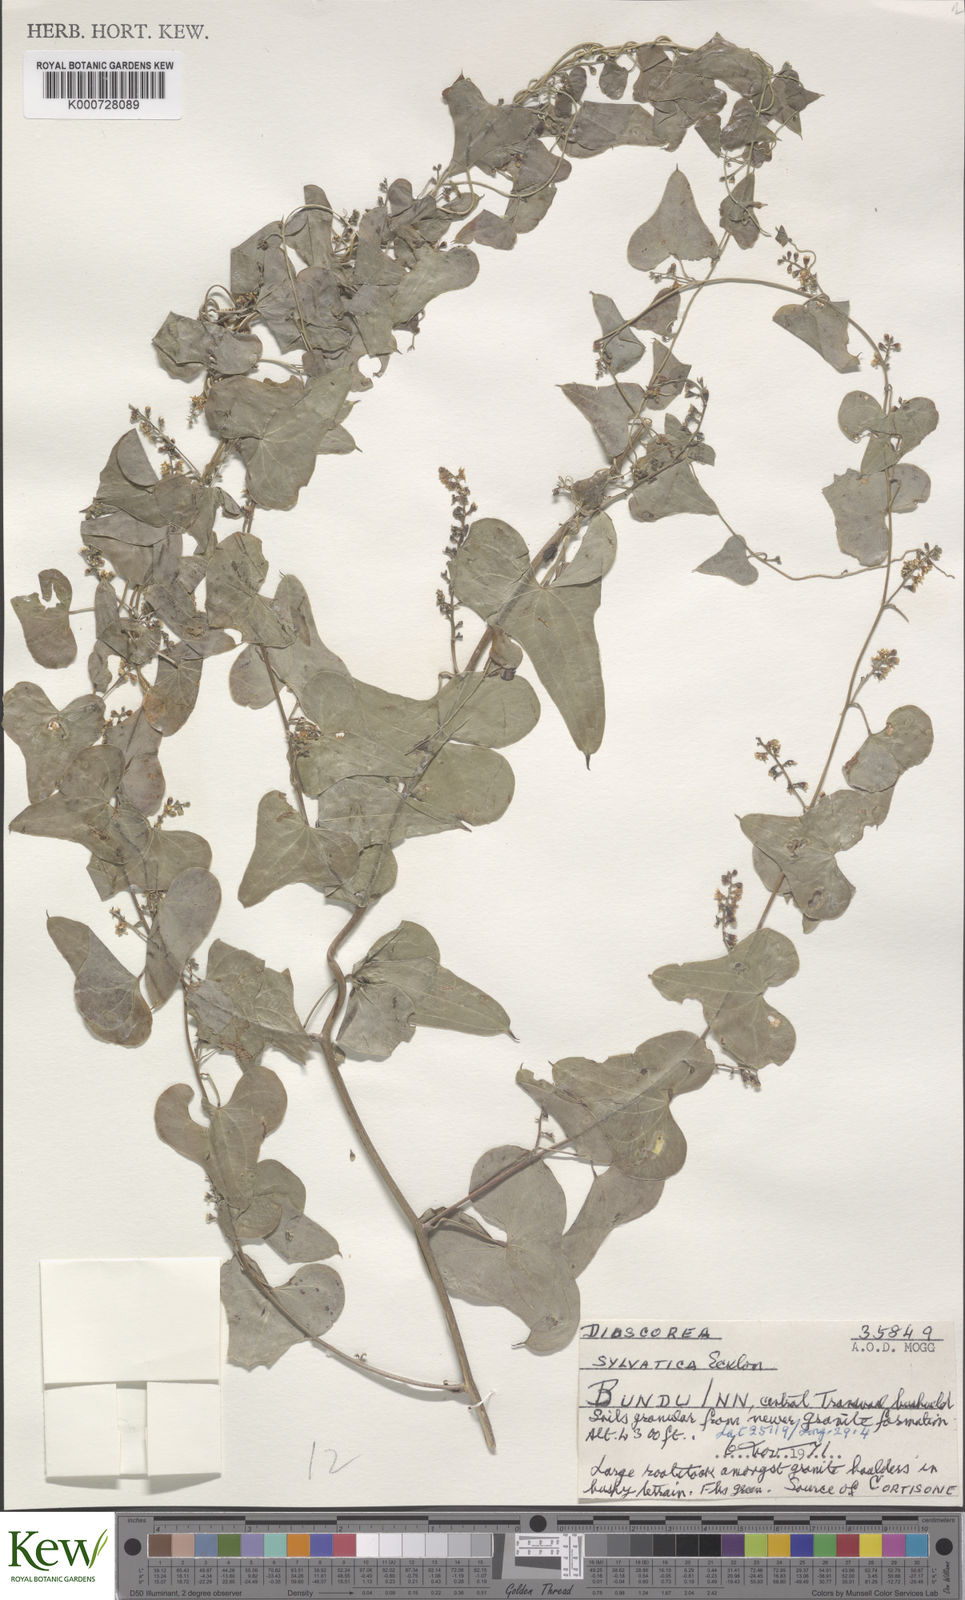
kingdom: Plantae
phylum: Tracheophyta
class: Liliopsida
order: Dioscoreales
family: Dioscoreaceae
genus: Dioscorea
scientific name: Dioscorea sylvatica
